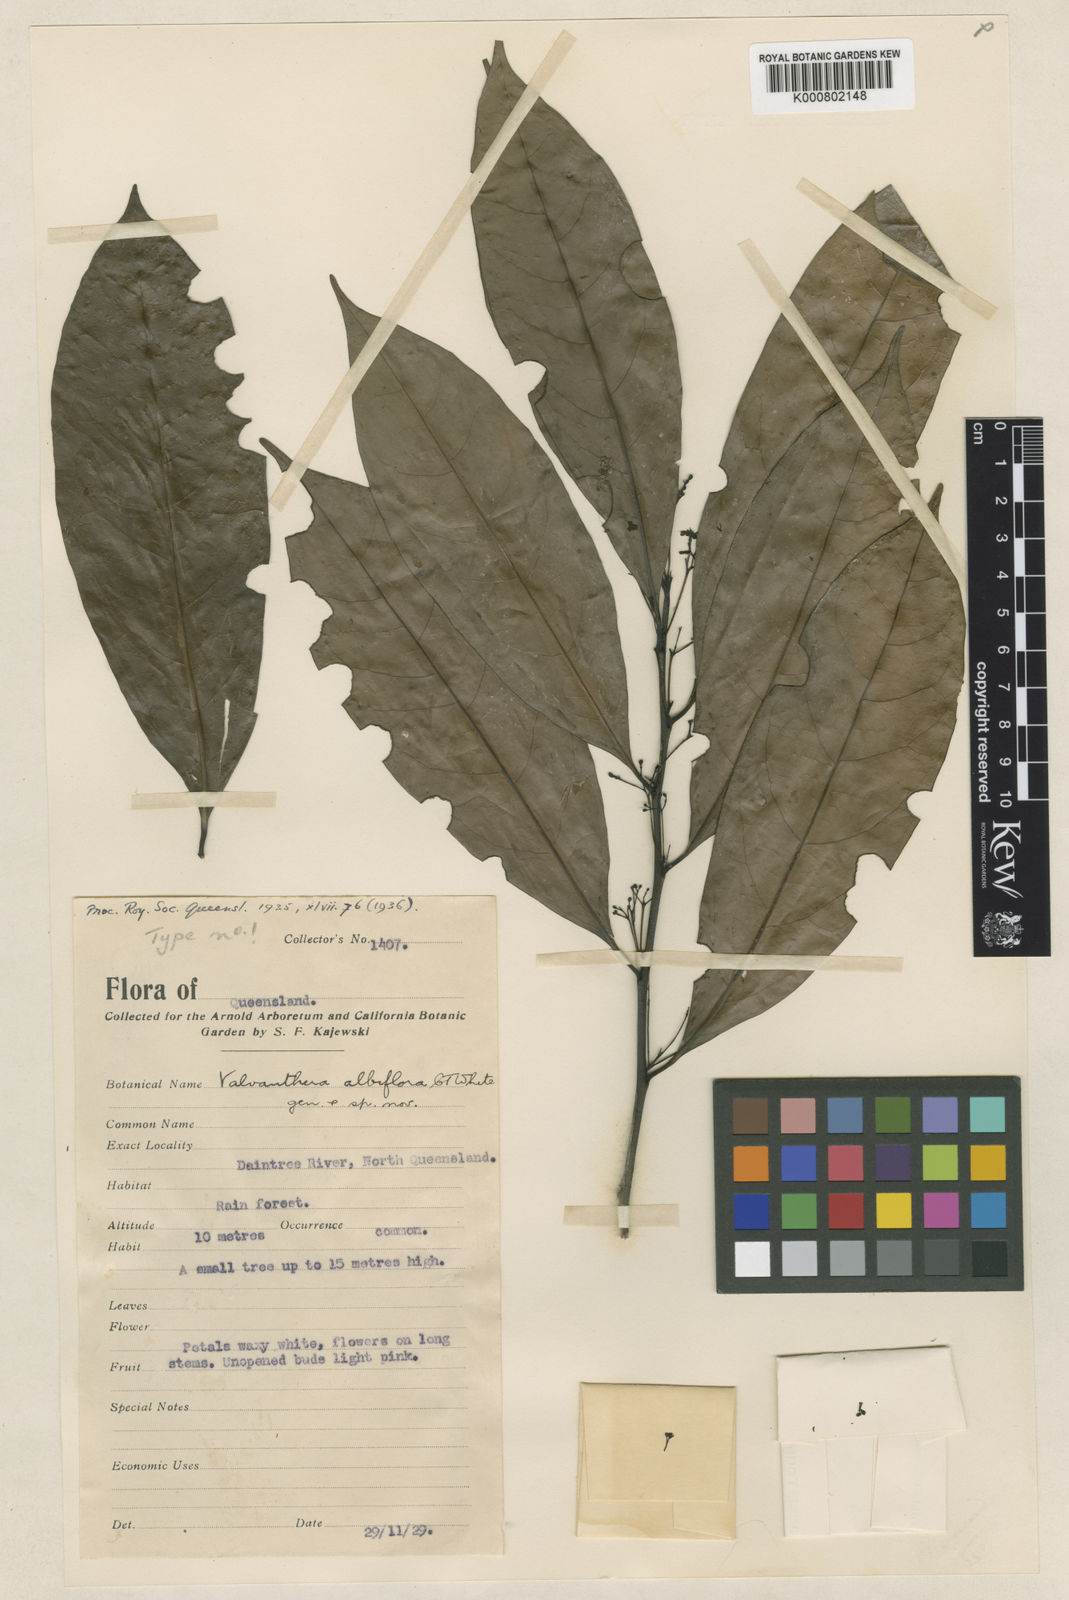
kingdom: Plantae
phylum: Tracheophyta
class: Magnoliopsida
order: Laurales
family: Hernandiaceae
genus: Hernandia
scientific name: Hernandia albiflora
